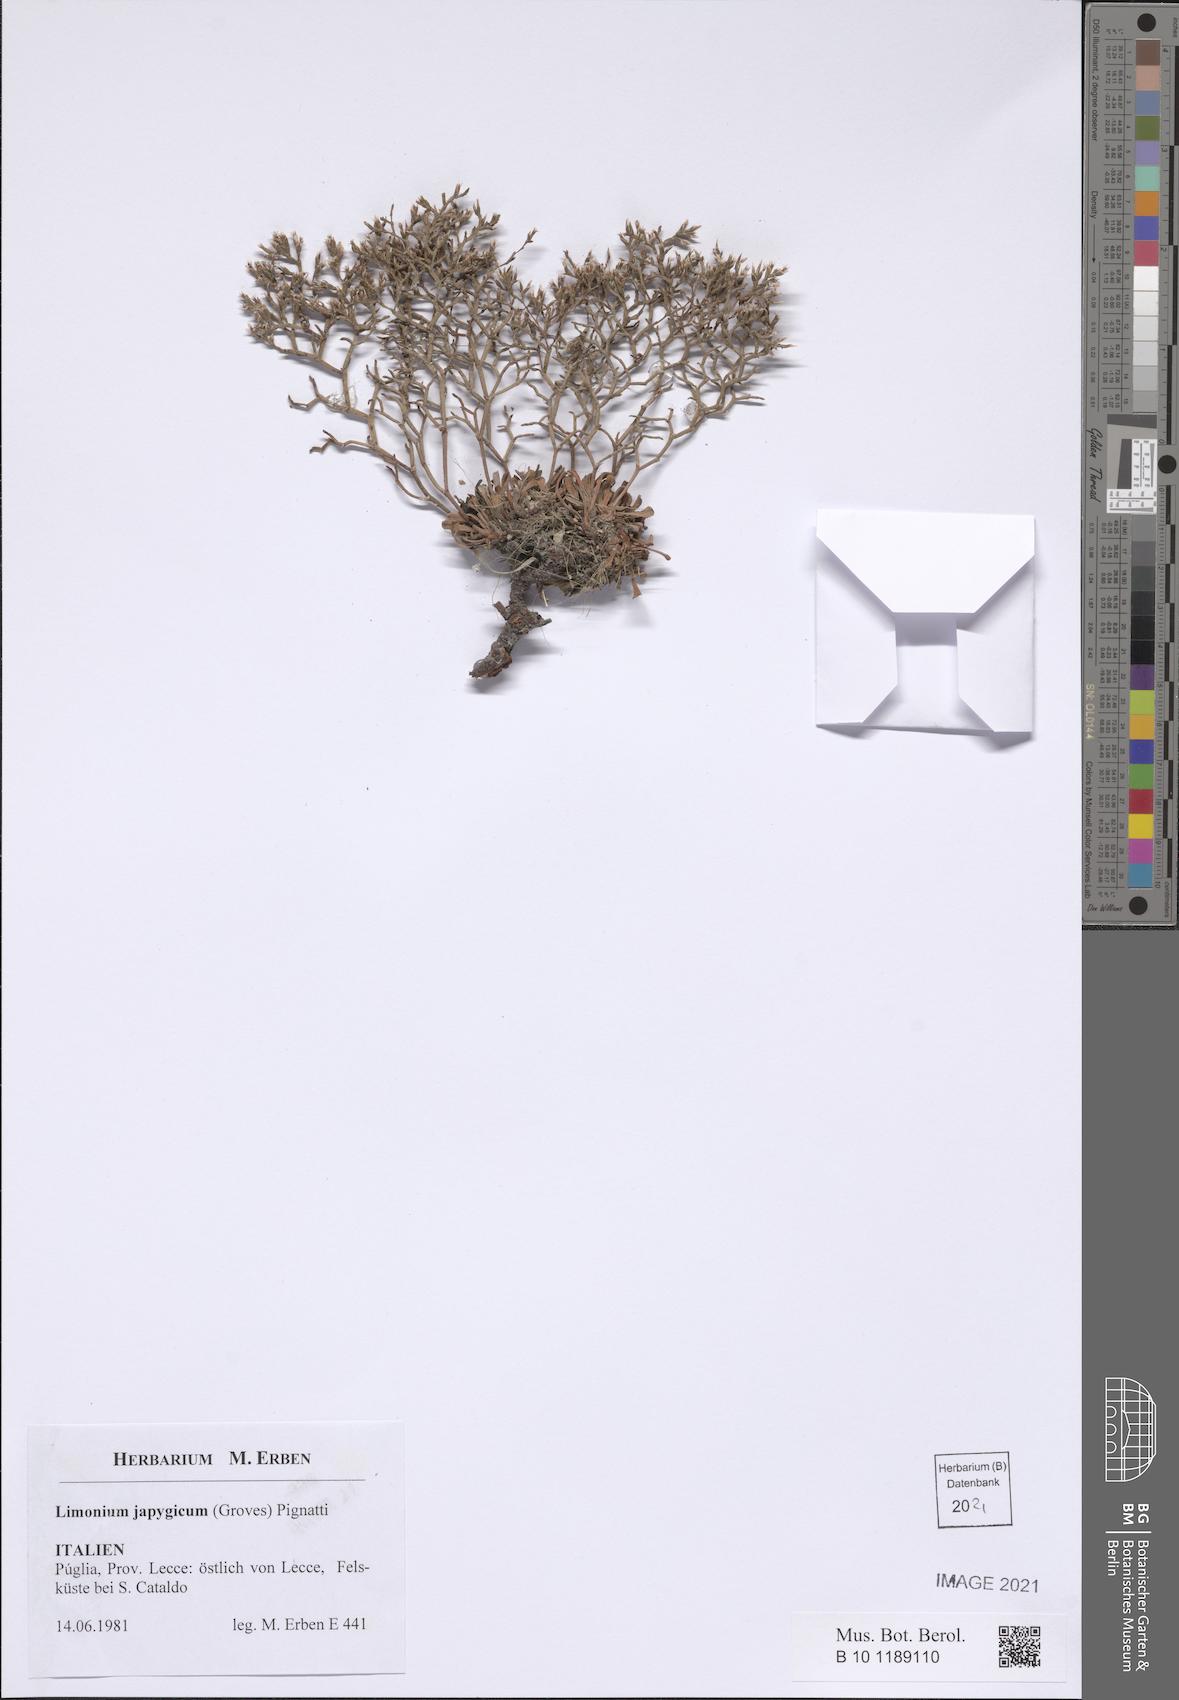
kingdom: Plantae
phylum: Tracheophyta
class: Magnoliopsida
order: Caryophyllales
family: Plumbaginaceae
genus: Limonium
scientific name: Limonium japygicum
